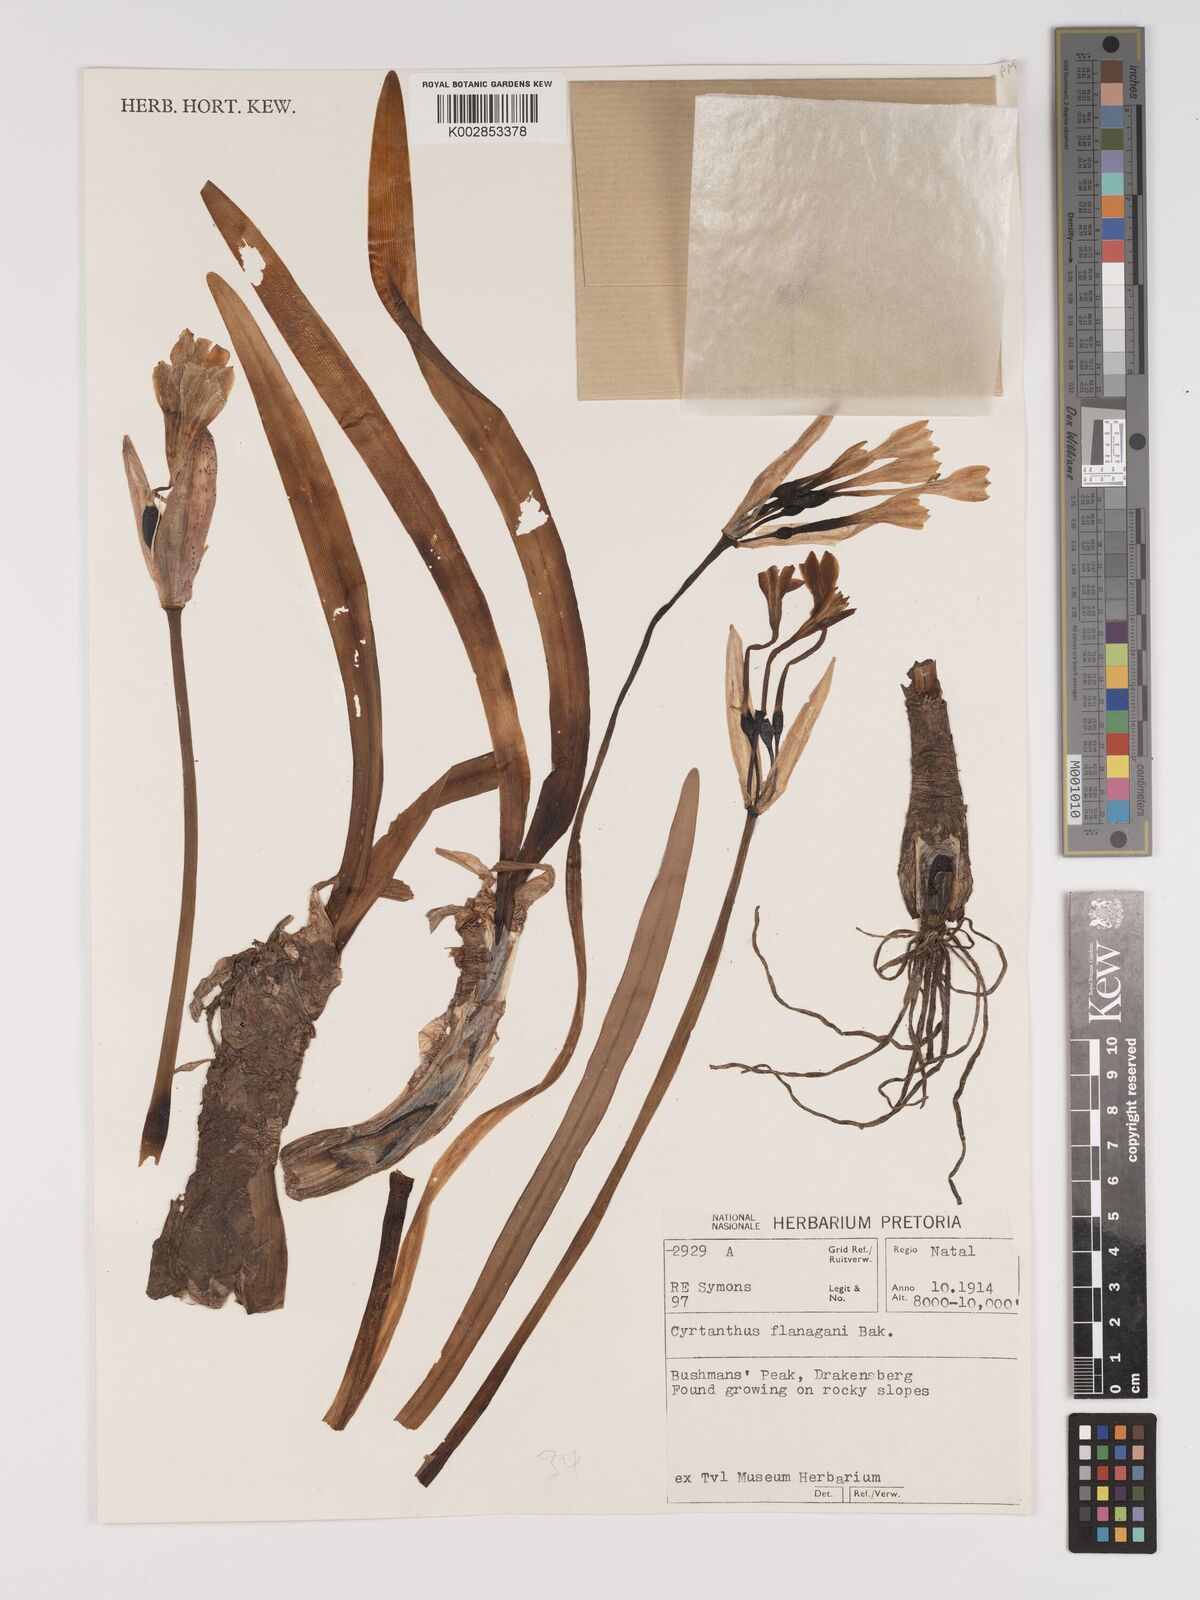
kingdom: Plantae
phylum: Tracheophyta
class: Liliopsida
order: Asparagales
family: Amaryllidaceae
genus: Cyrtanthus
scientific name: Cyrtanthus flanaganii
